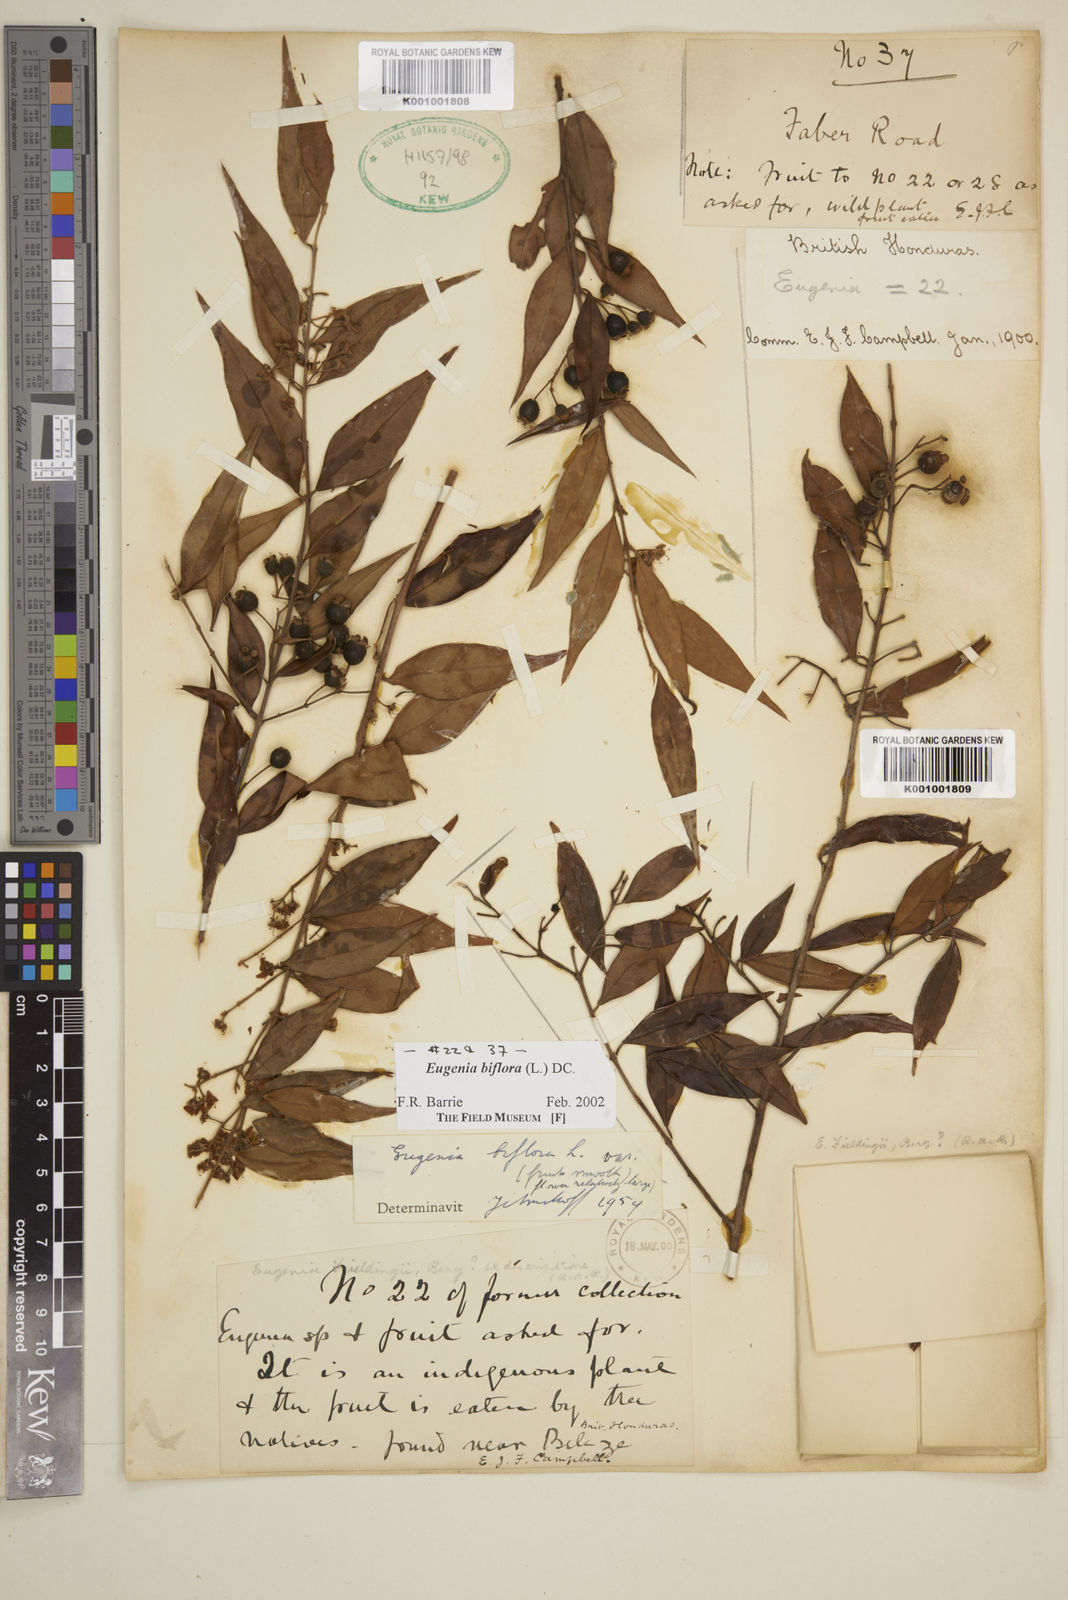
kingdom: Plantae
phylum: Tracheophyta
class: Magnoliopsida
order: Myrtales
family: Myrtaceae
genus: Eugenia
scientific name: Eugenia biflora
